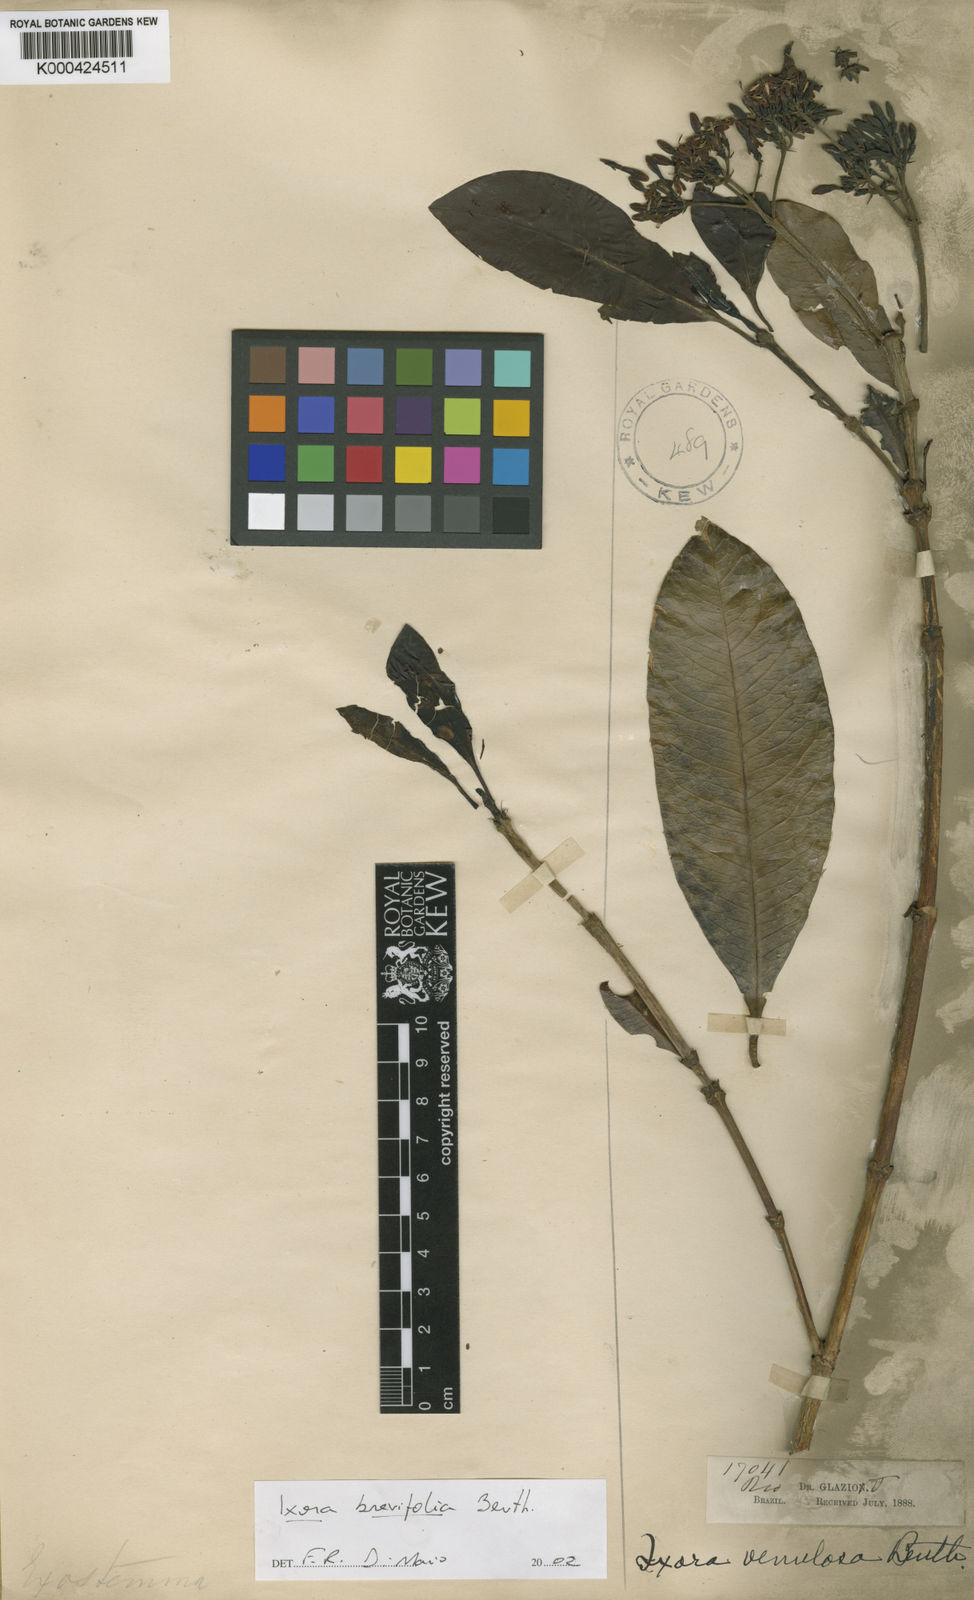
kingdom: Plantae
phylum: Tracheophyta
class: Magnoliopsida
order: Gentianales
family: Rubiaceae
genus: Ixora
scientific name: Ixora
